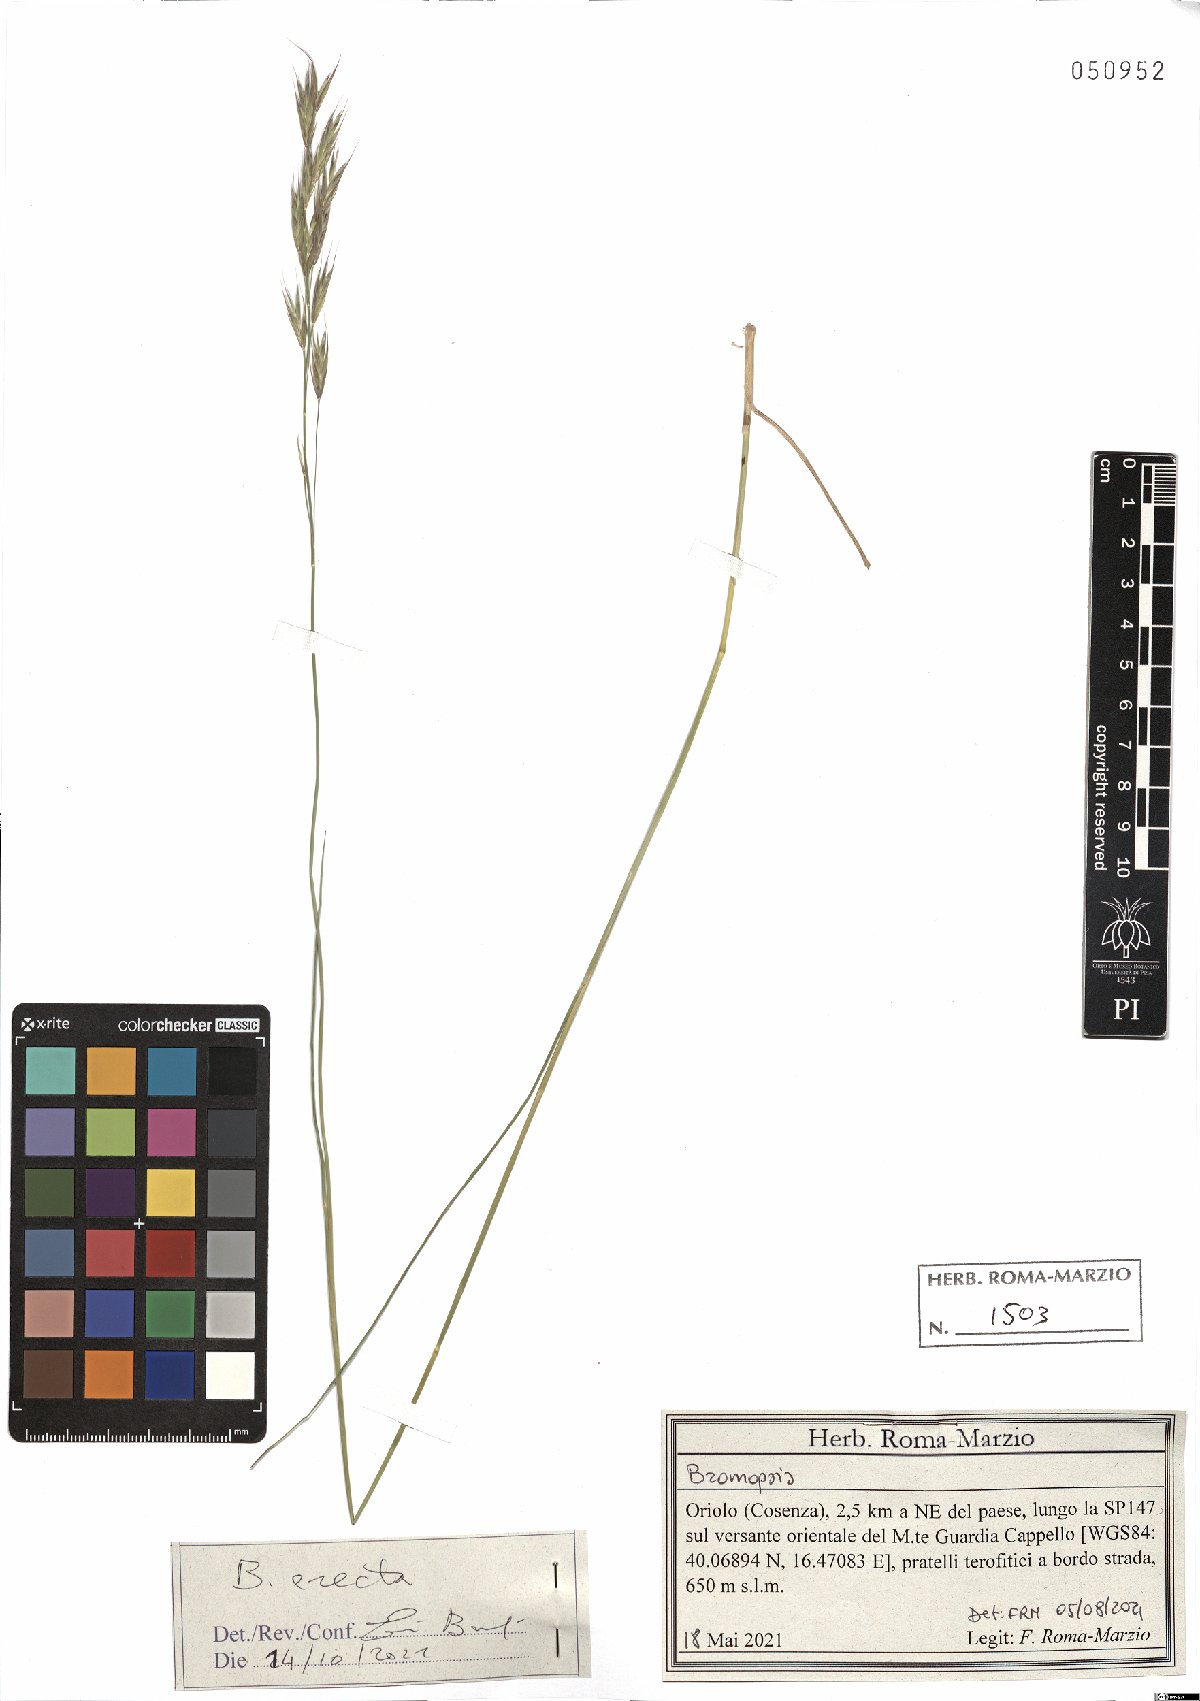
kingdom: Plantae
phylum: Tracheophyta
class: Liliopsida
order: Poales
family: Poaceae
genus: Bromus
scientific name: Bromus erectus
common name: Erect brome
